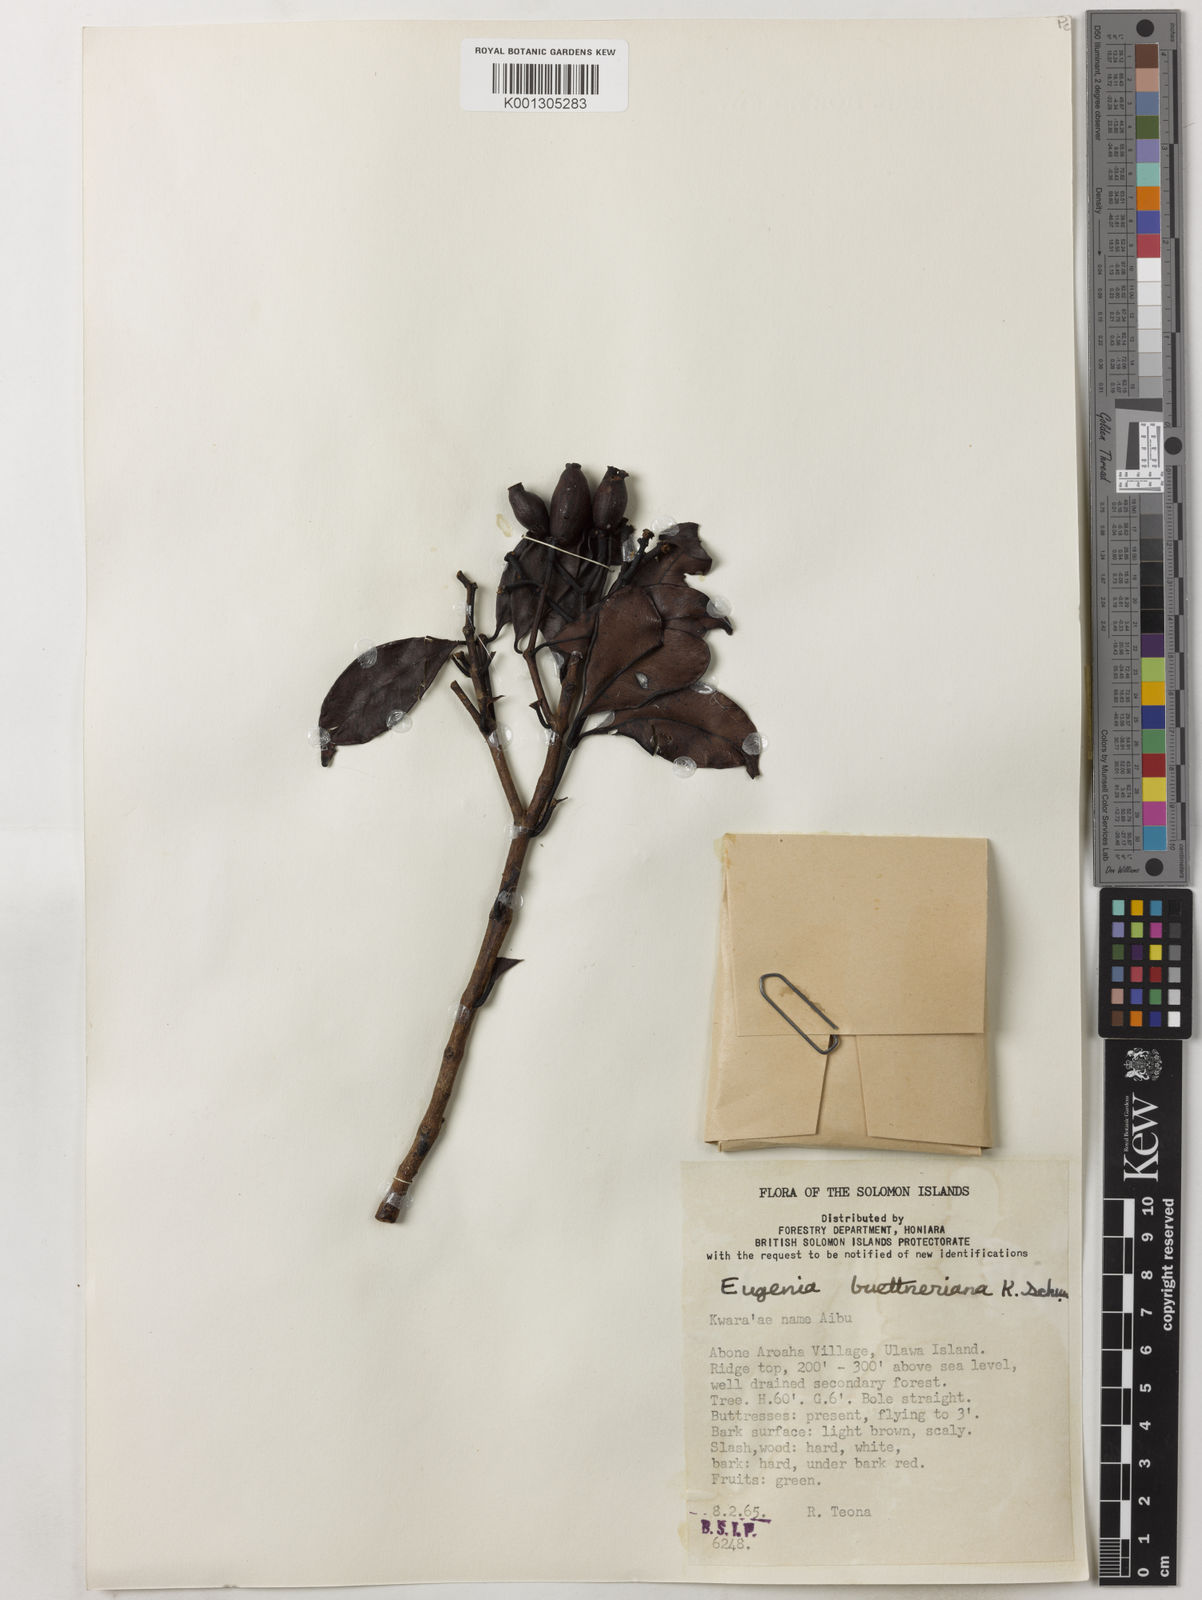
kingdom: Plantae
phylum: Tracheophyta
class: Magnoliopsida
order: Myrtales
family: Myrtaceae
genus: Syzygium
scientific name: Syzygium buettnerianum
